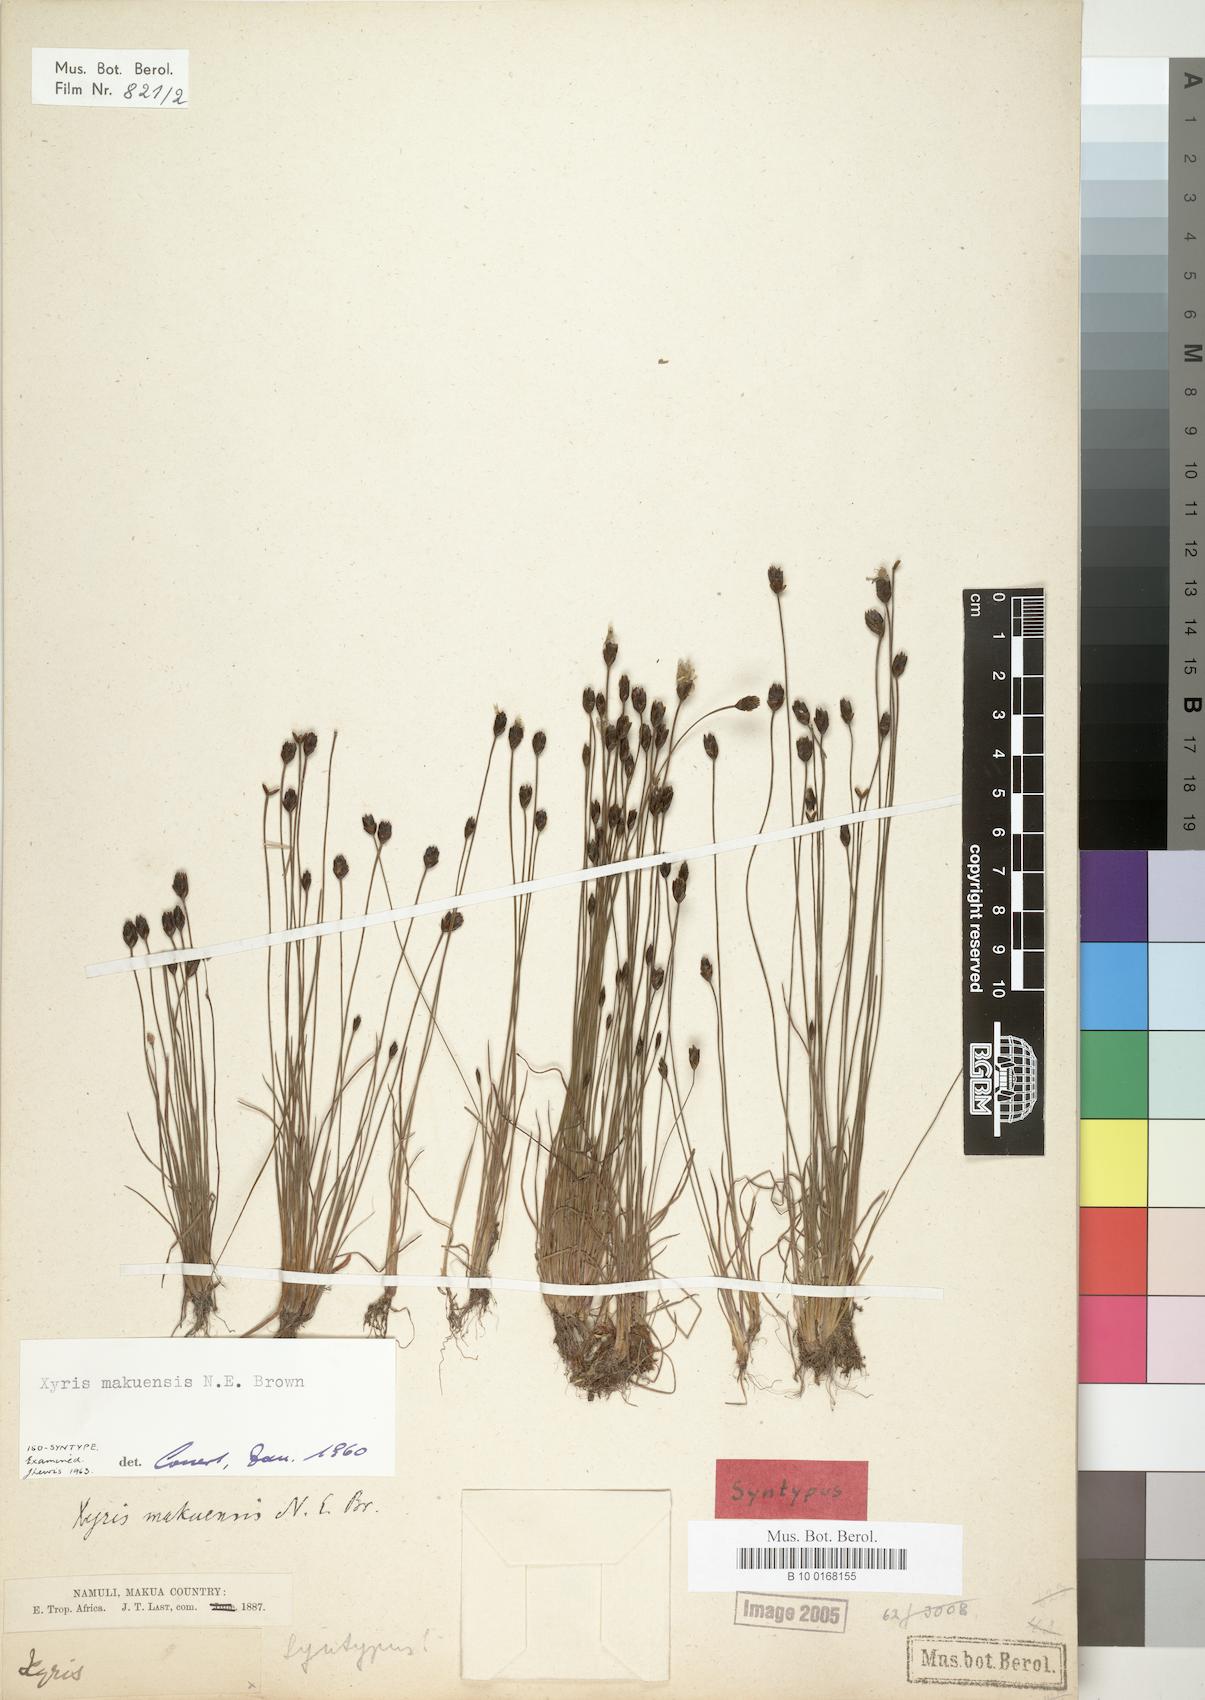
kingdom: Plantae
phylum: Tracheophyta
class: Liliopsida
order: Poales
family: Xyridaceae
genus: Xyris
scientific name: Xyris makuensis
